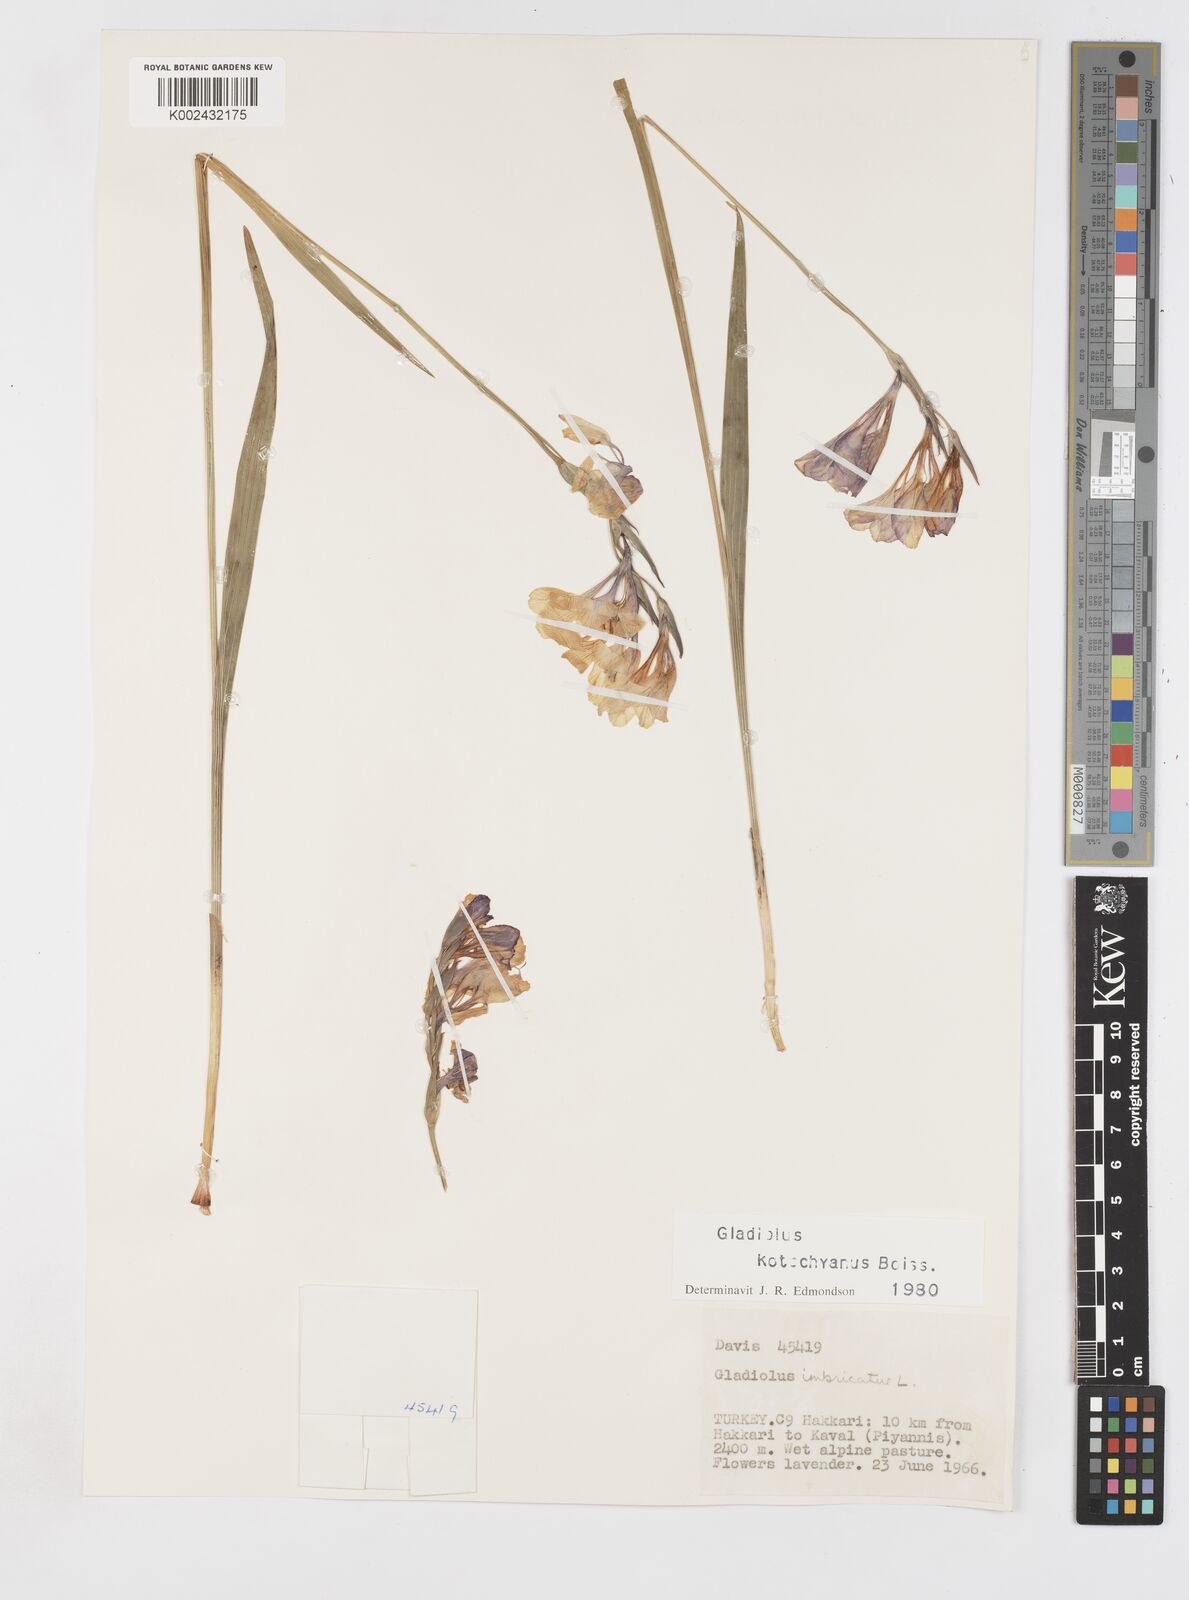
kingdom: Plantae
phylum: Tracheophyta
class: Liliopsida
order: Asparagales
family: Iridaceae
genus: Gladiolus
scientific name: Gladiolus imbricatus
